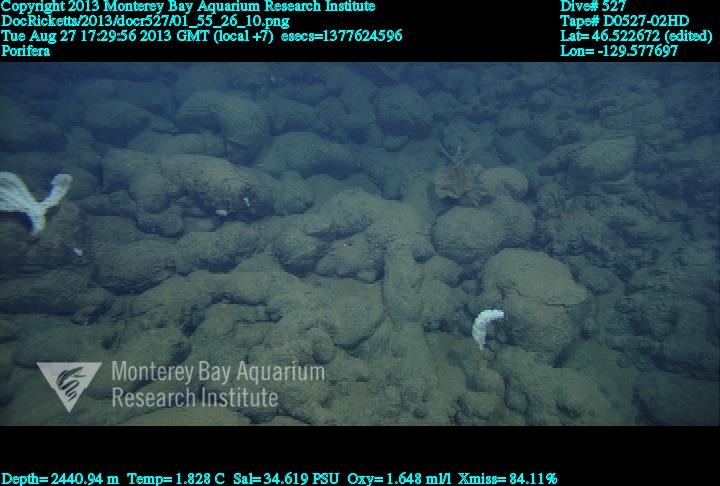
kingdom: Animalia
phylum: Porifera
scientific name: Porifera
